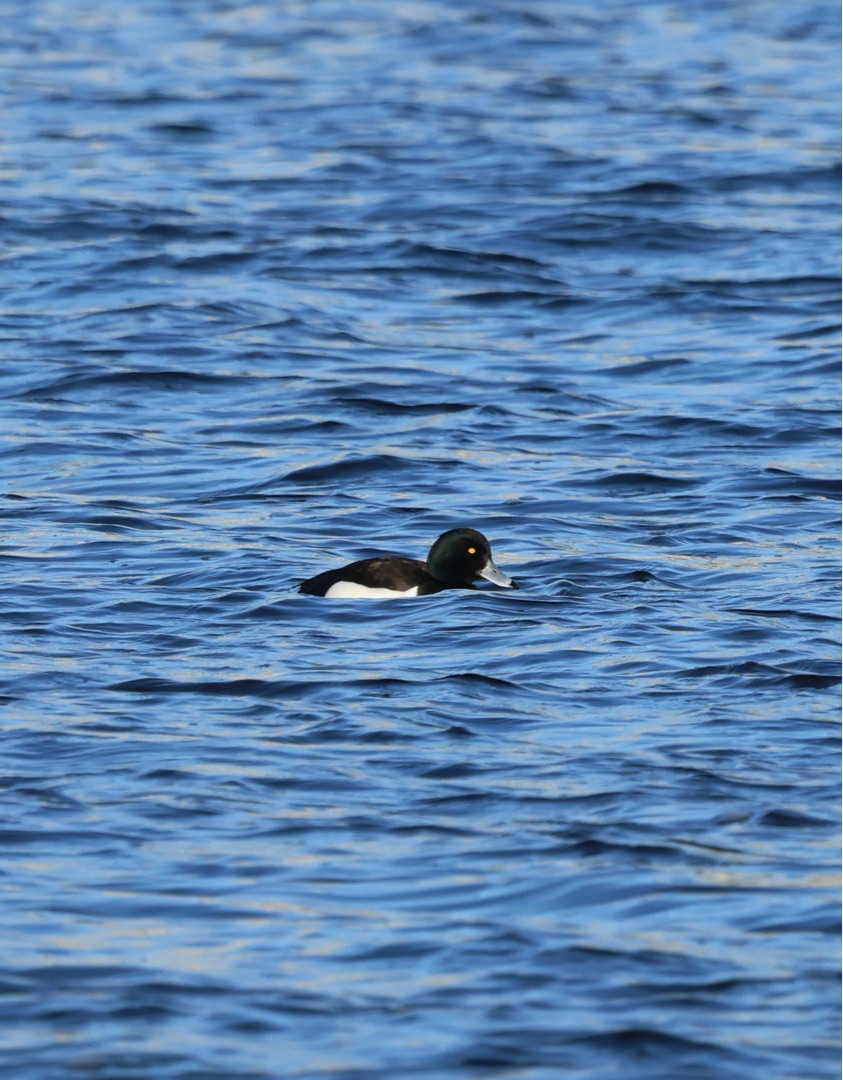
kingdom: Animalia
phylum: Chordata
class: Aves
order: Anseriformes
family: Anatidae
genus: Aythya
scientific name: Aythya fuligula
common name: Troldand
